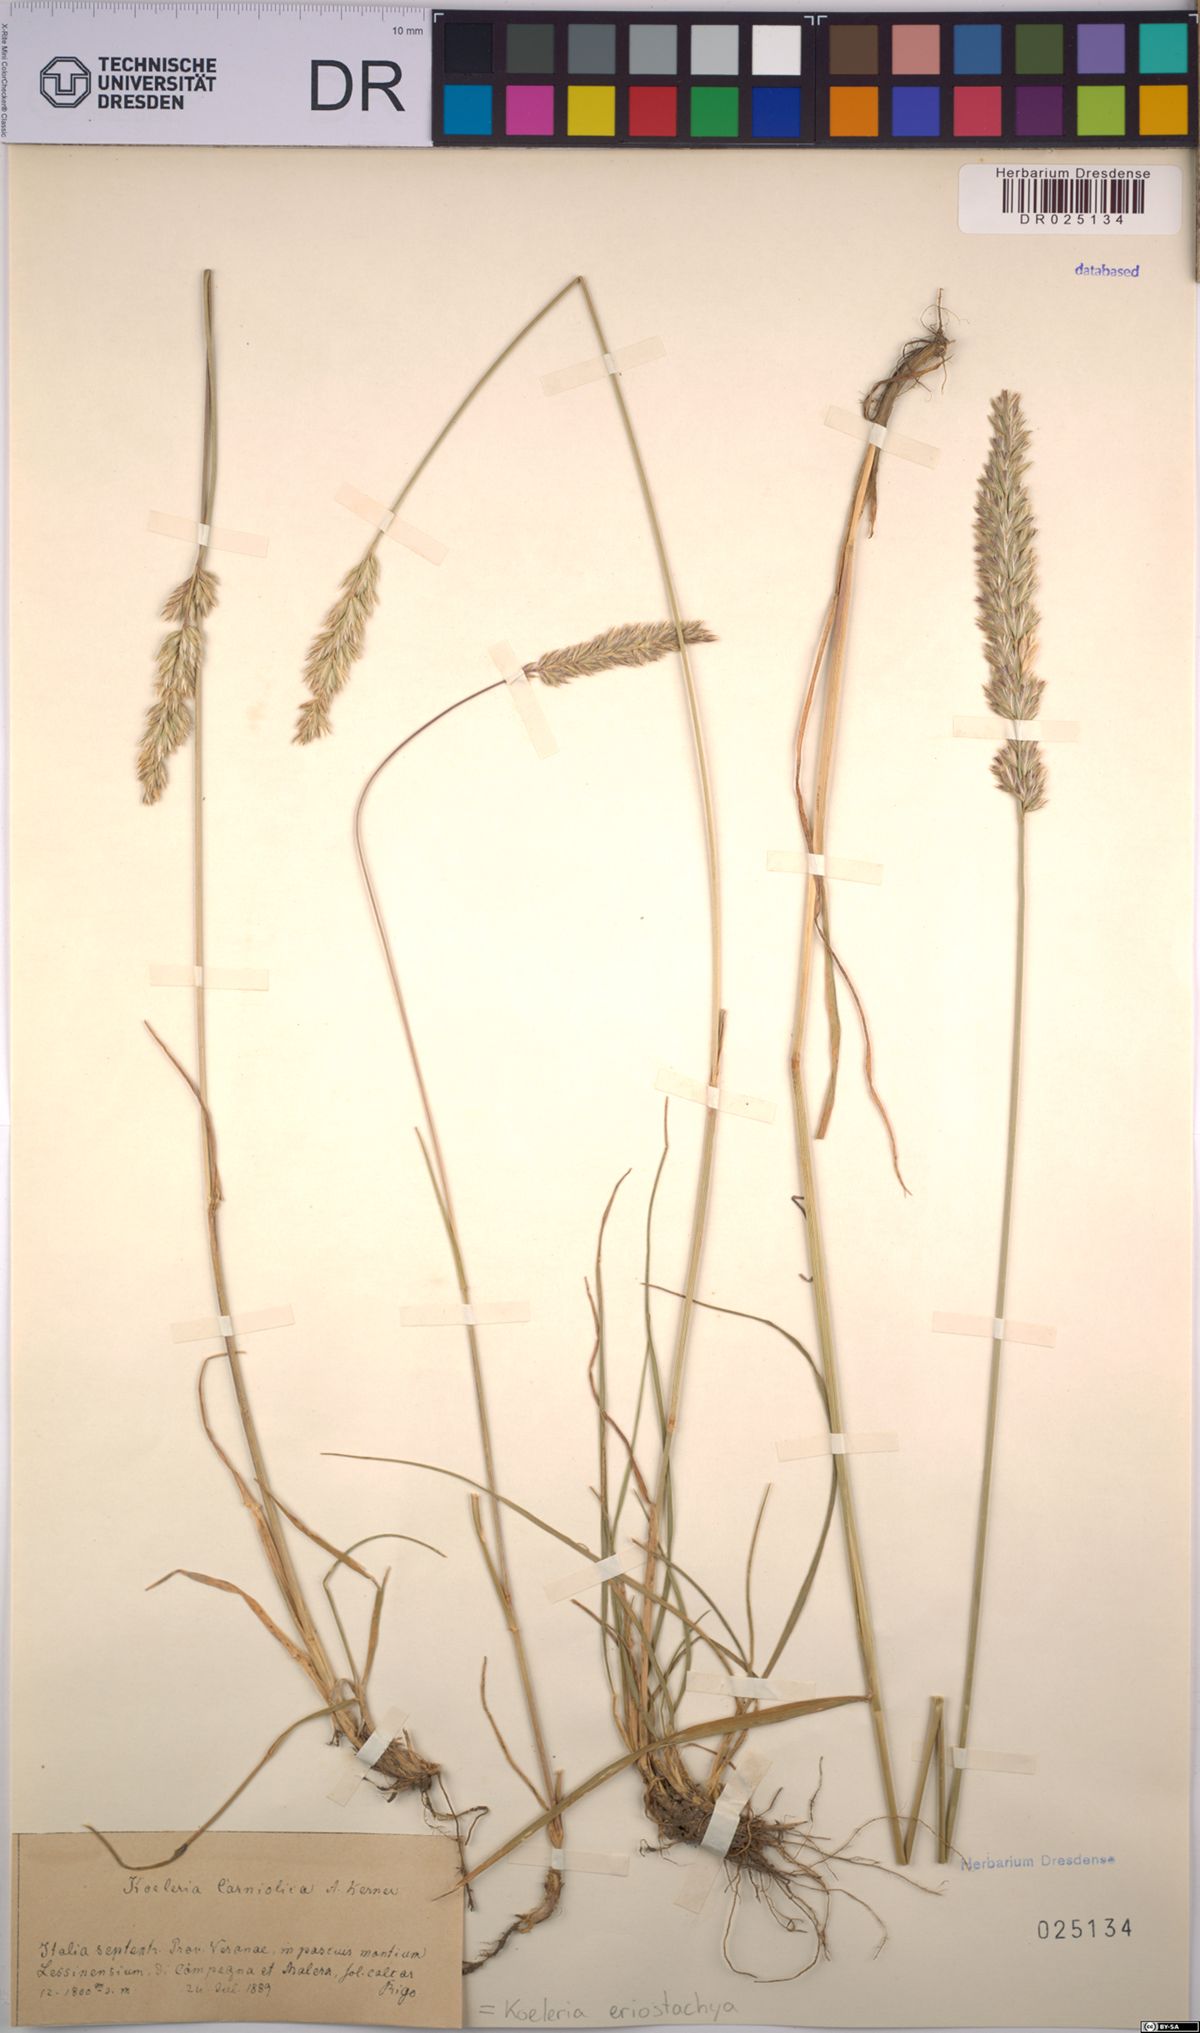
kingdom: Plantae
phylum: Tracheophyta
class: Liliopsida
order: Poales
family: Poaceae
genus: Koeleria
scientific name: Koeleria eriostachya
